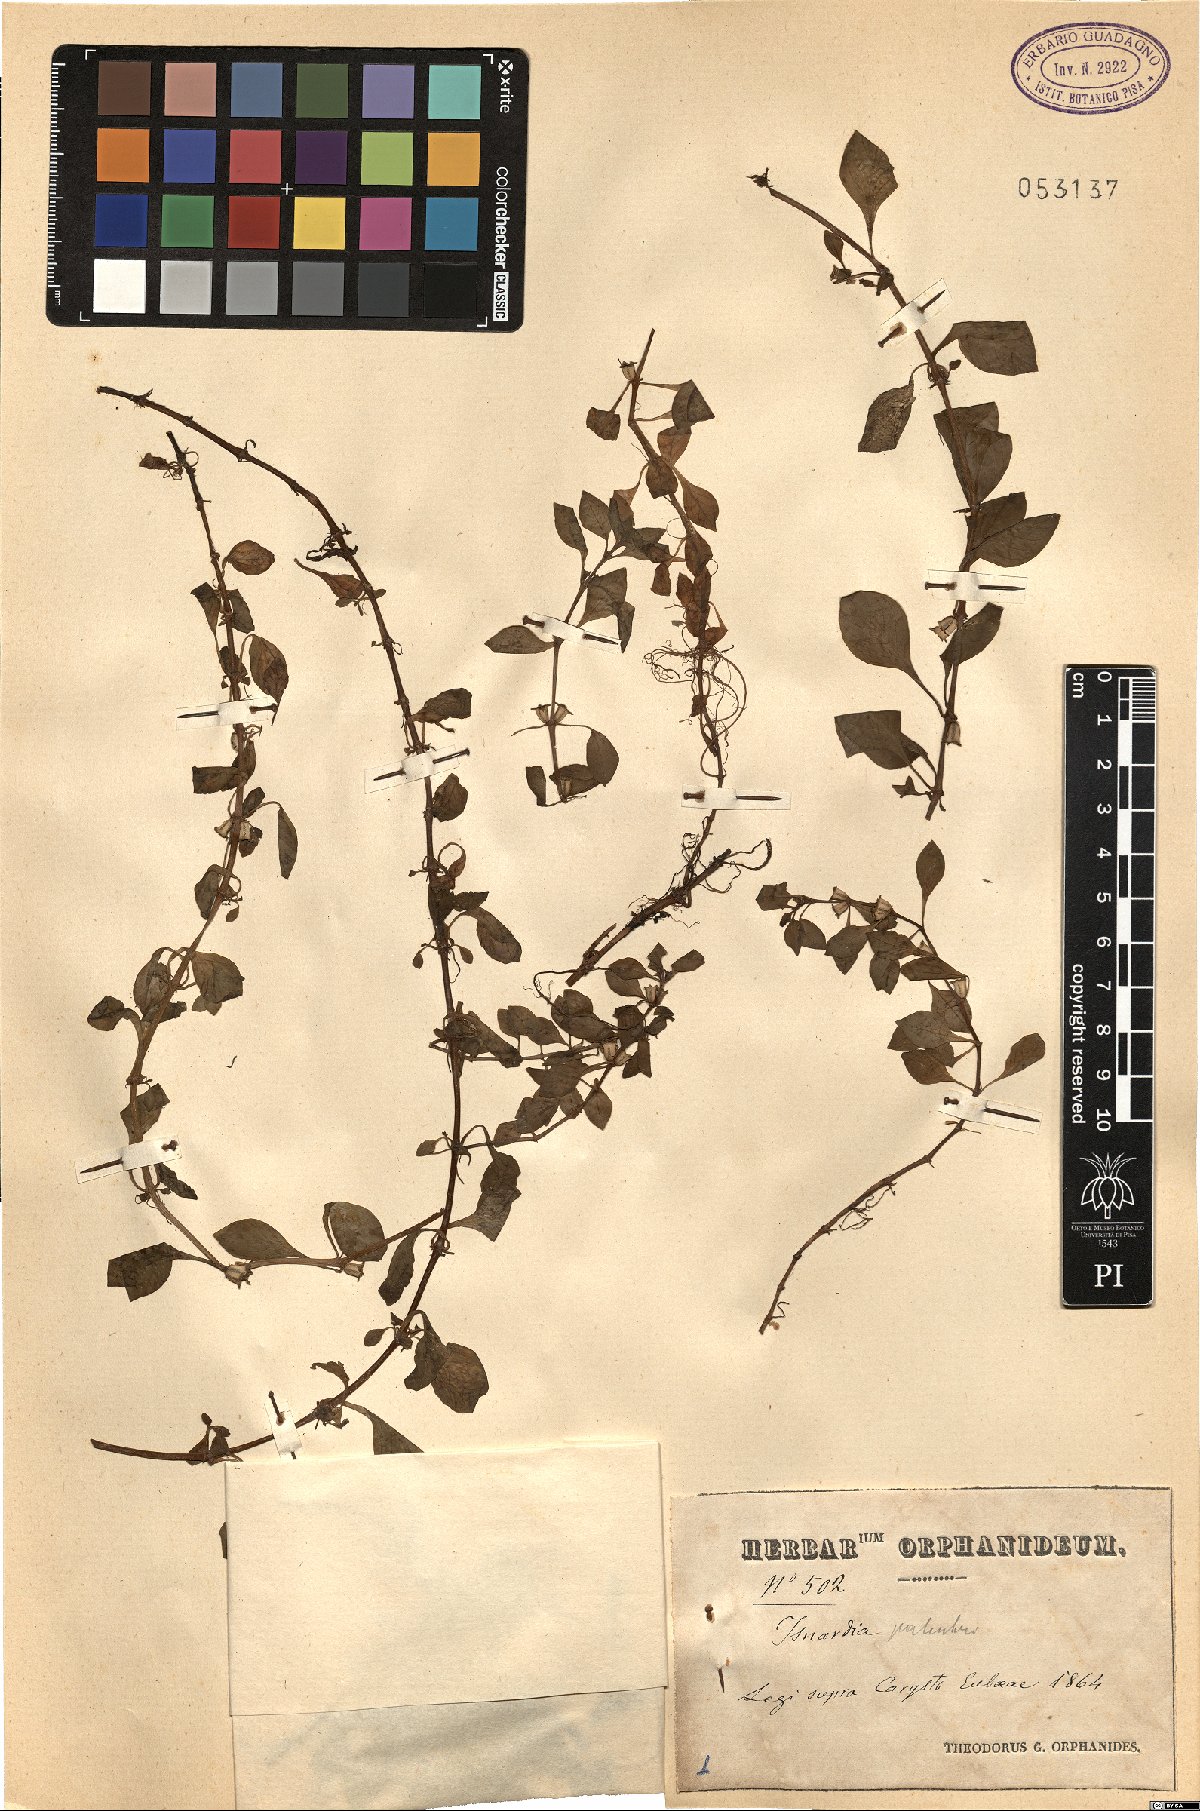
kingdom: Plantae
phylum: Tracheophyta
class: Magnoliopsida
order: Myrtales
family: Onagraceae
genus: Ludwigia
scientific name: Ludwigia palustris
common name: Hampshire-purslane
